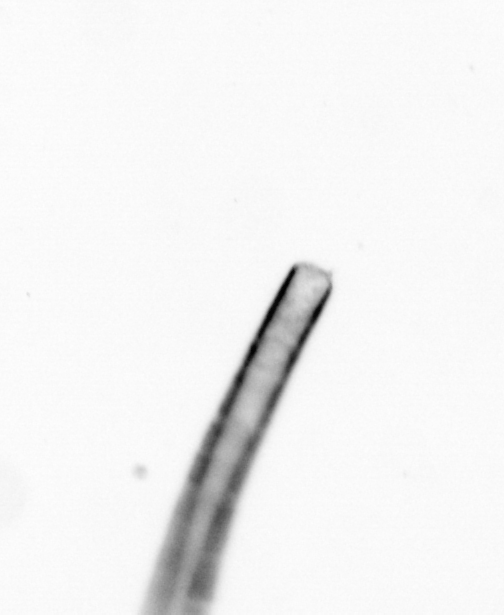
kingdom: Chromista
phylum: Ochrophyta
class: Bacillariophyceae
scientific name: Bacillariophyceae
